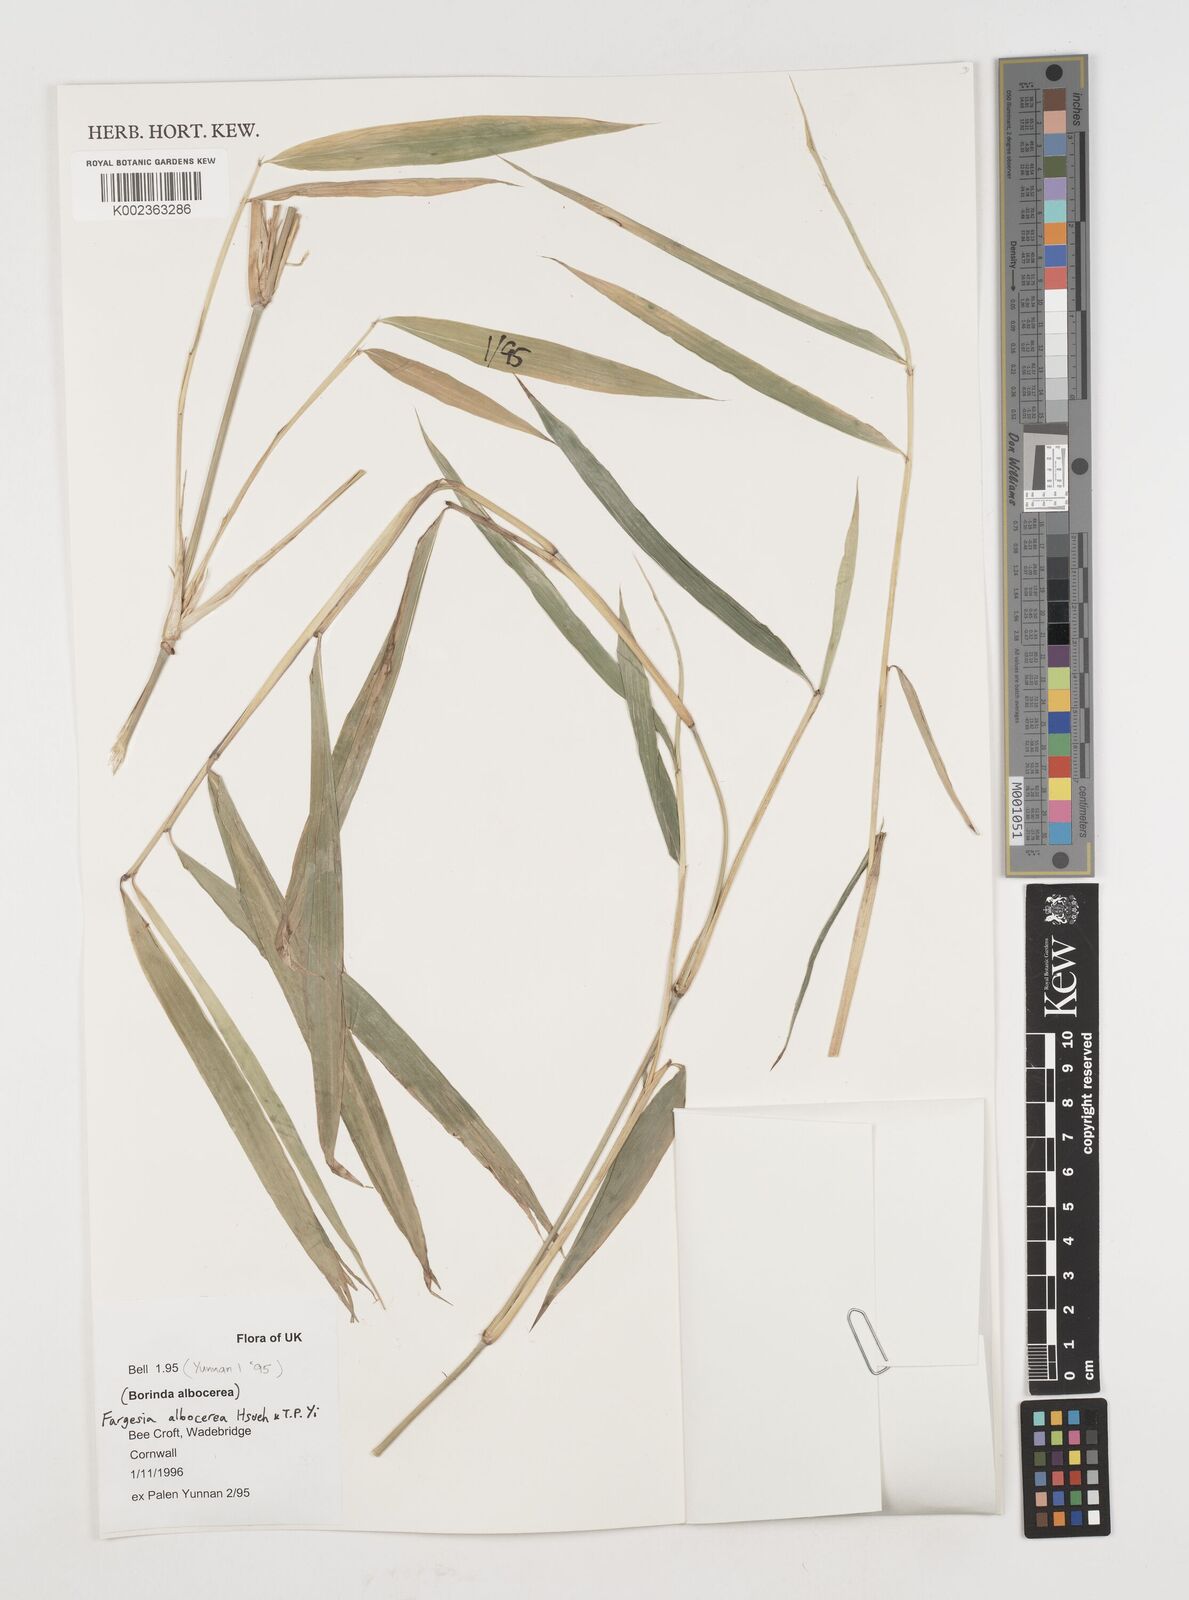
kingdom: Plantae
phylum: Tracheophyta
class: Liliopsida
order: Poales
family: Poaceae
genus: Borinda
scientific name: Borinda albocerea
